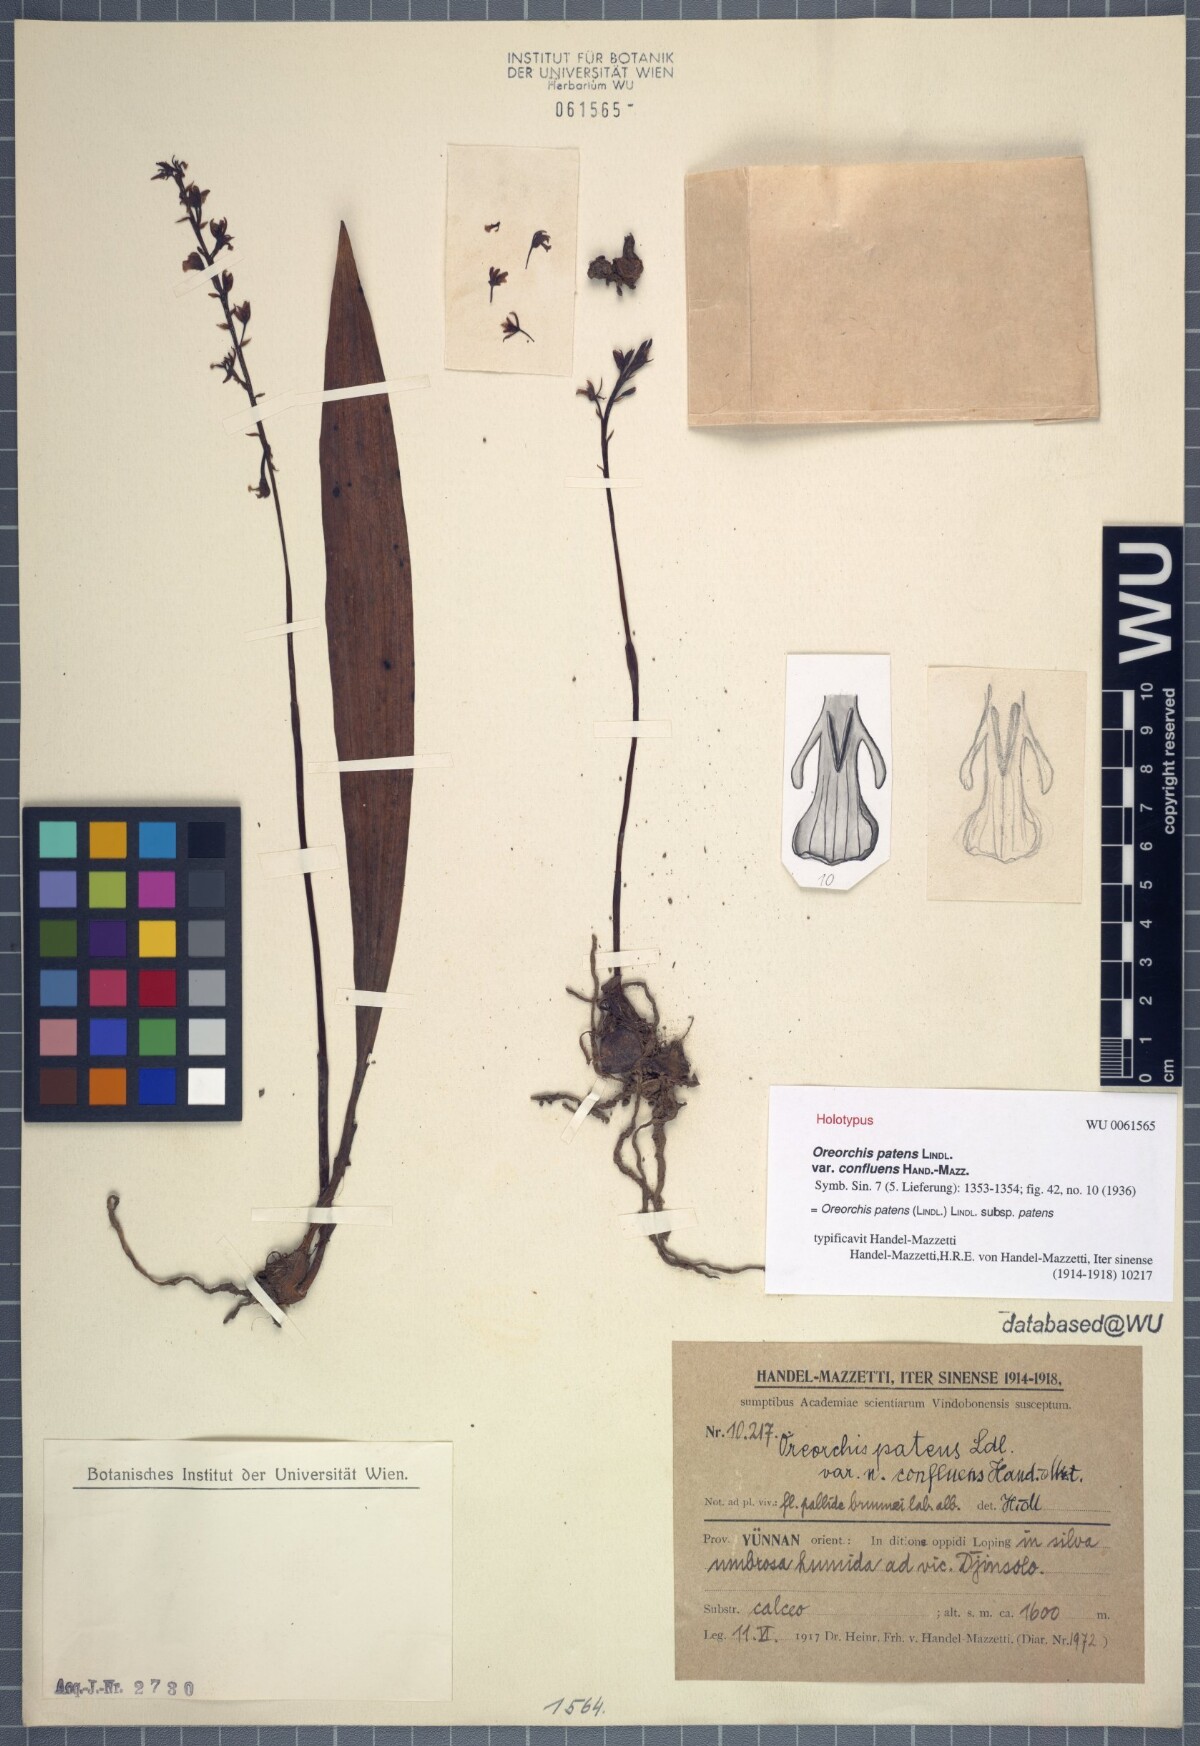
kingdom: Plantae
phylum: Tracheophyta
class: Liliopsida
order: Asparagales
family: Orchidaceae
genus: Oreorchis
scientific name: Oreorchis patens
